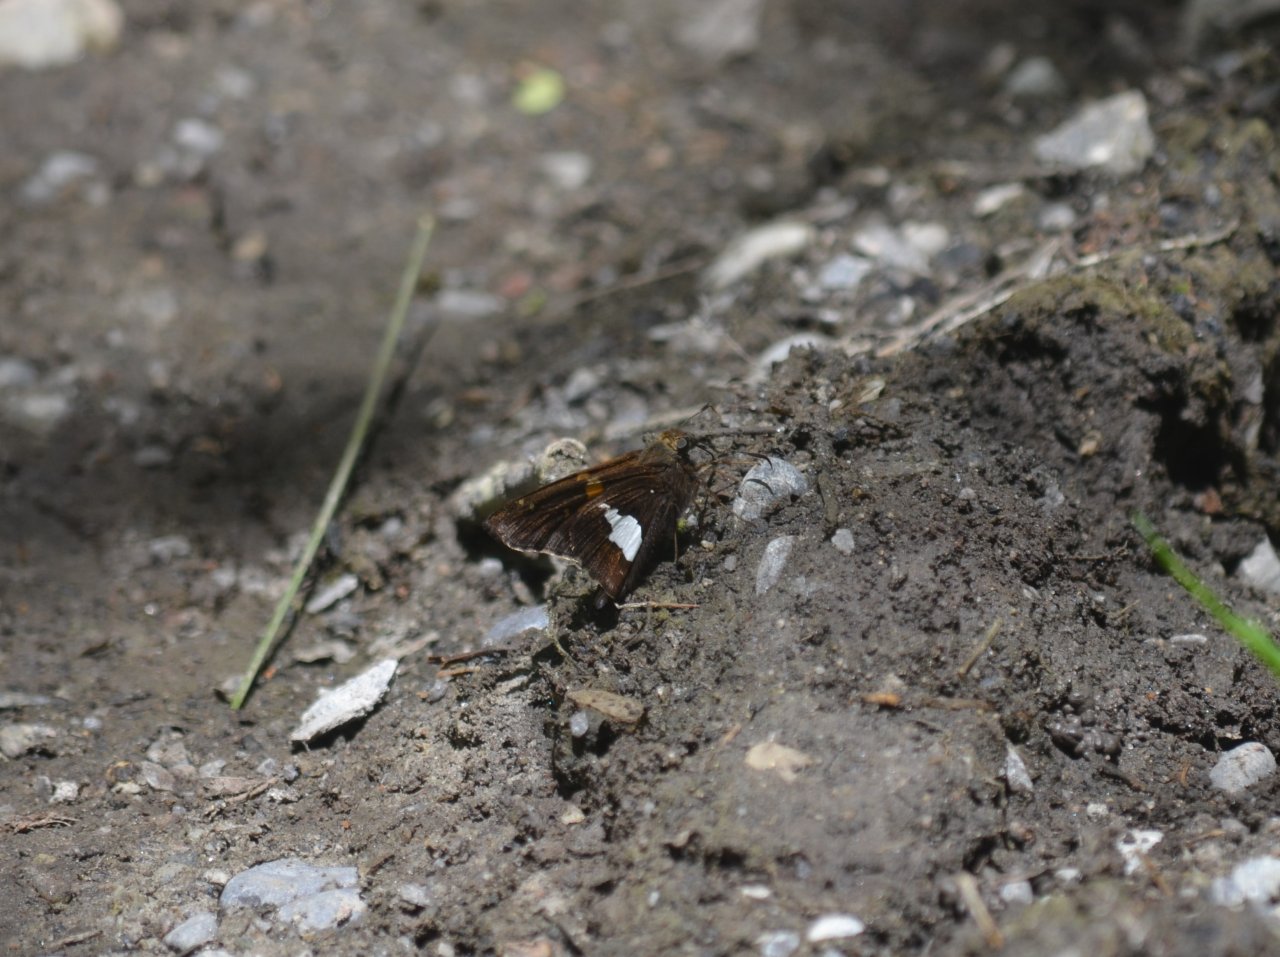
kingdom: Animalia
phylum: Arthropoda
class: Insecta
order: Lepidoptera
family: Hesperiidae
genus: Epargyreus
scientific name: Epargyreus clarus
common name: Silver-spotted Skipper
